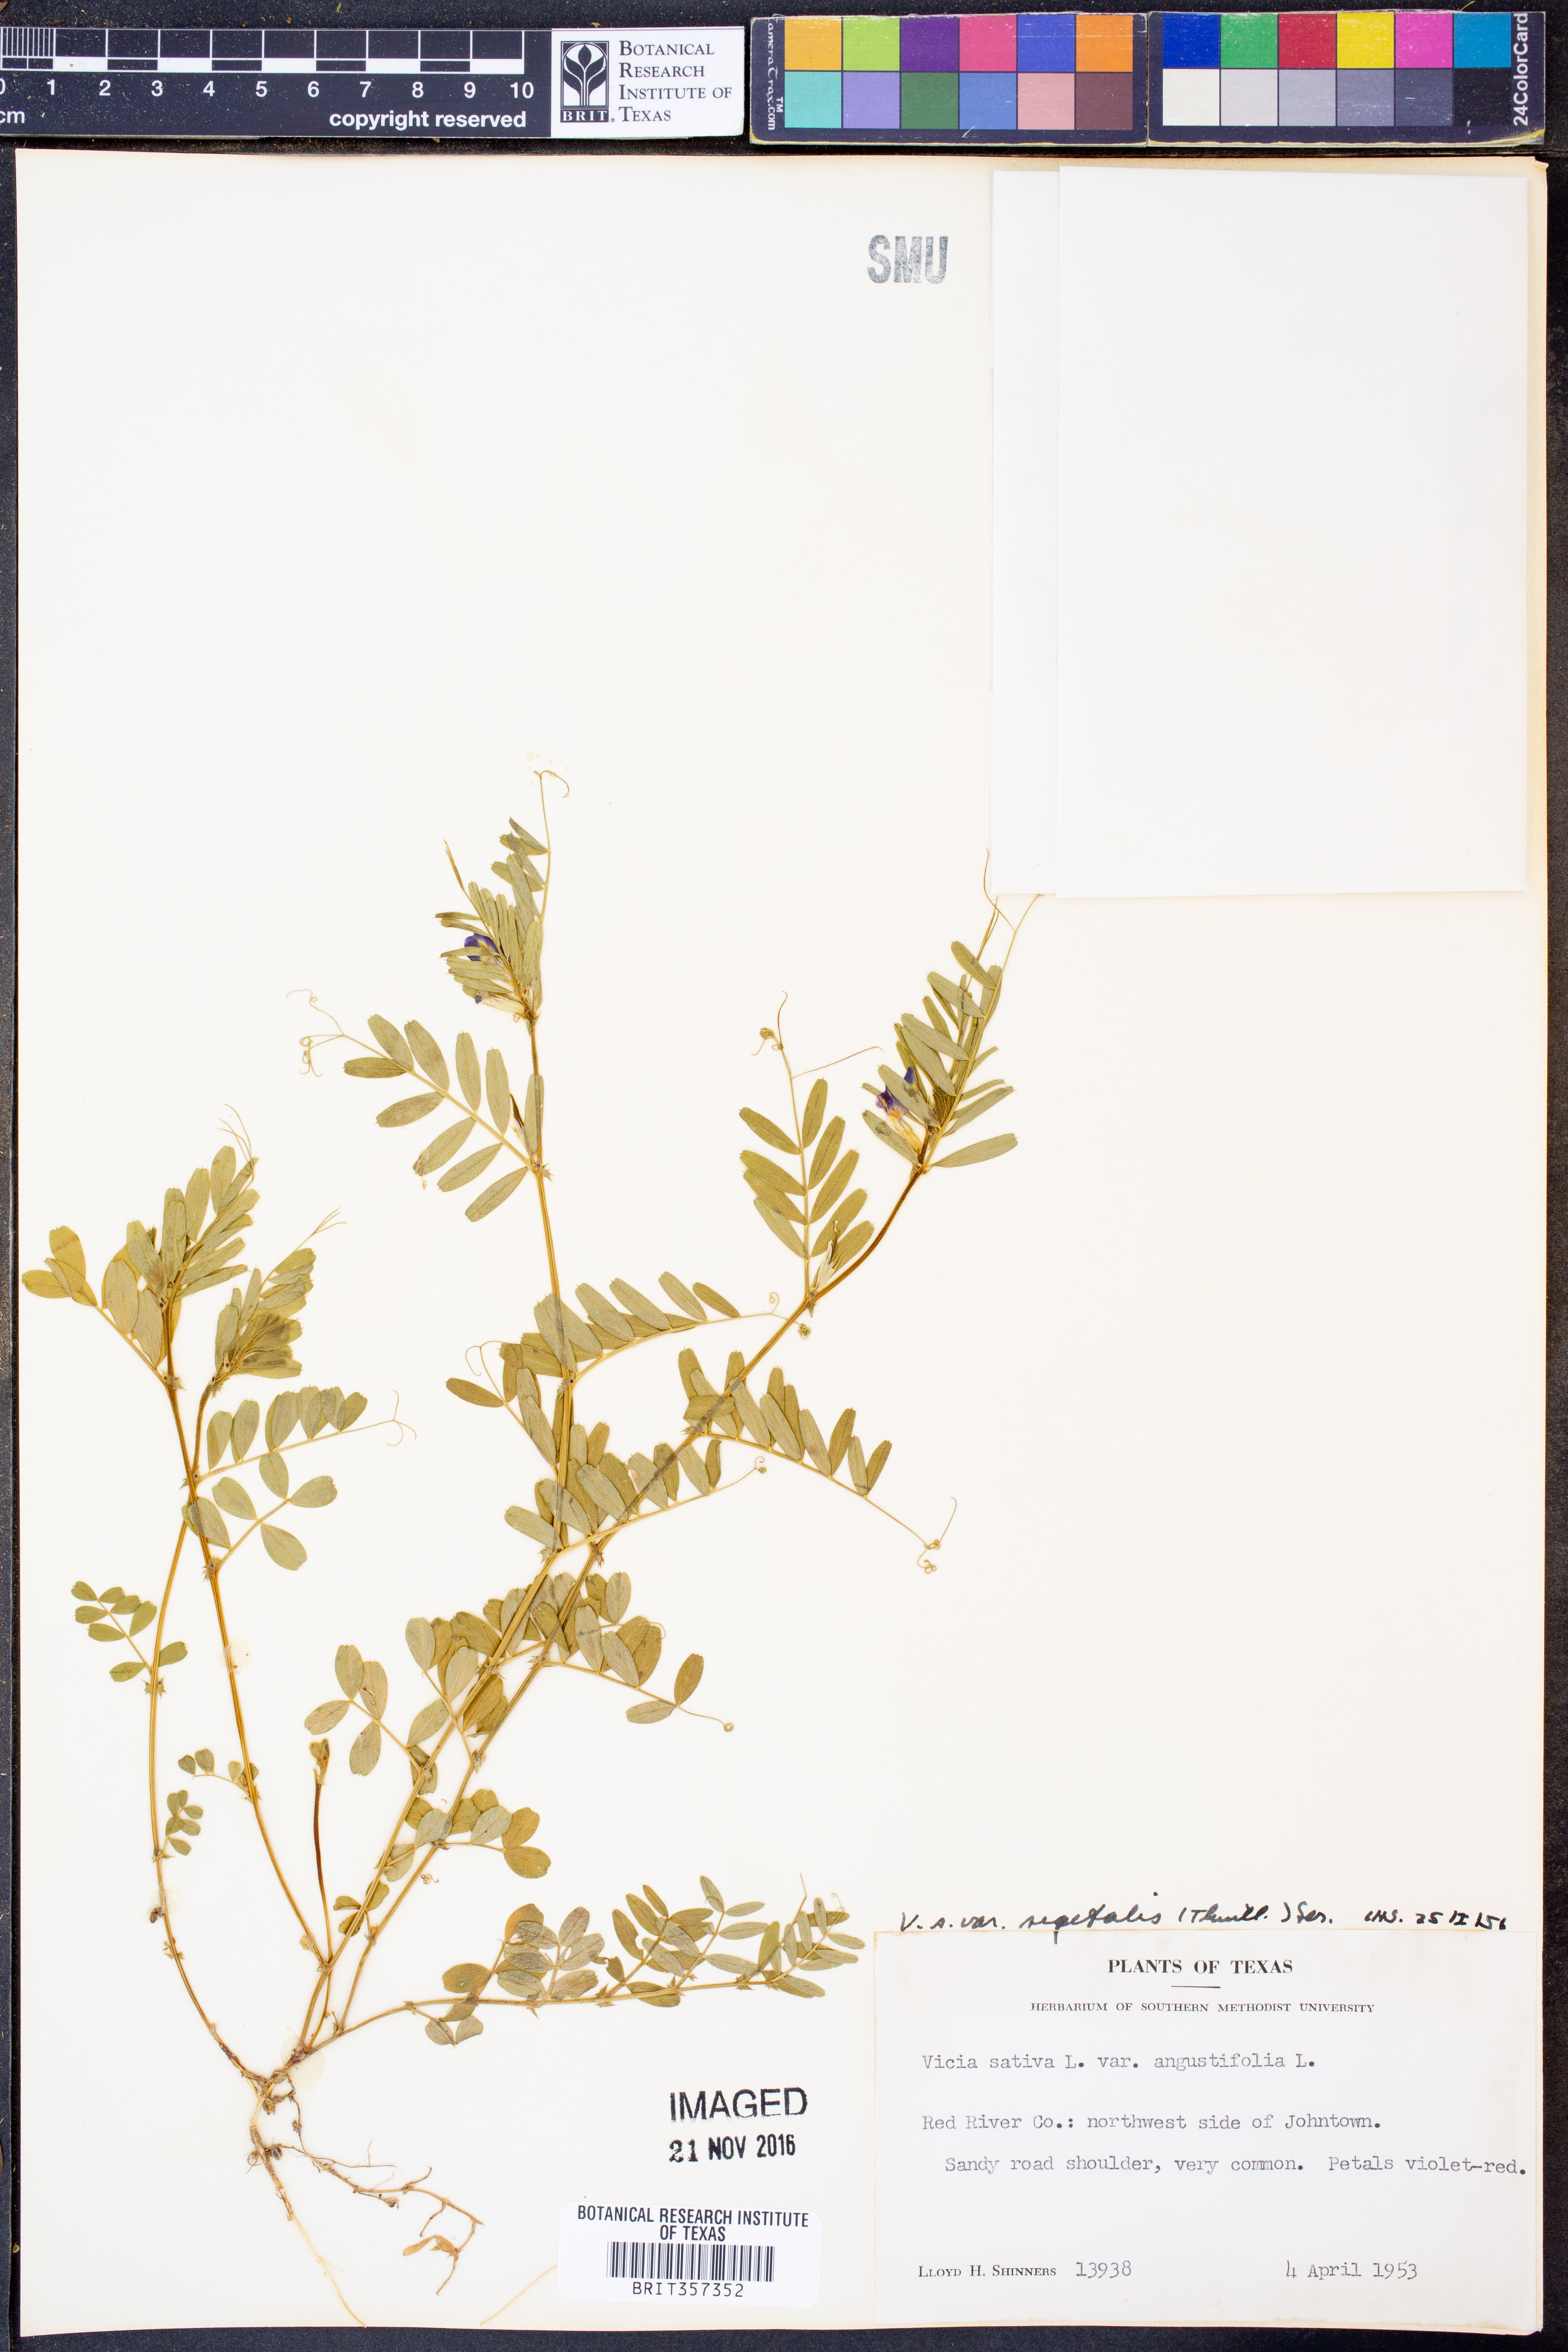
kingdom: Plantae
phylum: Tracheophyta
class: Magnoliopsida
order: Fabales
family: Fabaceae
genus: Vicia
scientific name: Vicia sativa
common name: Garden vetch
